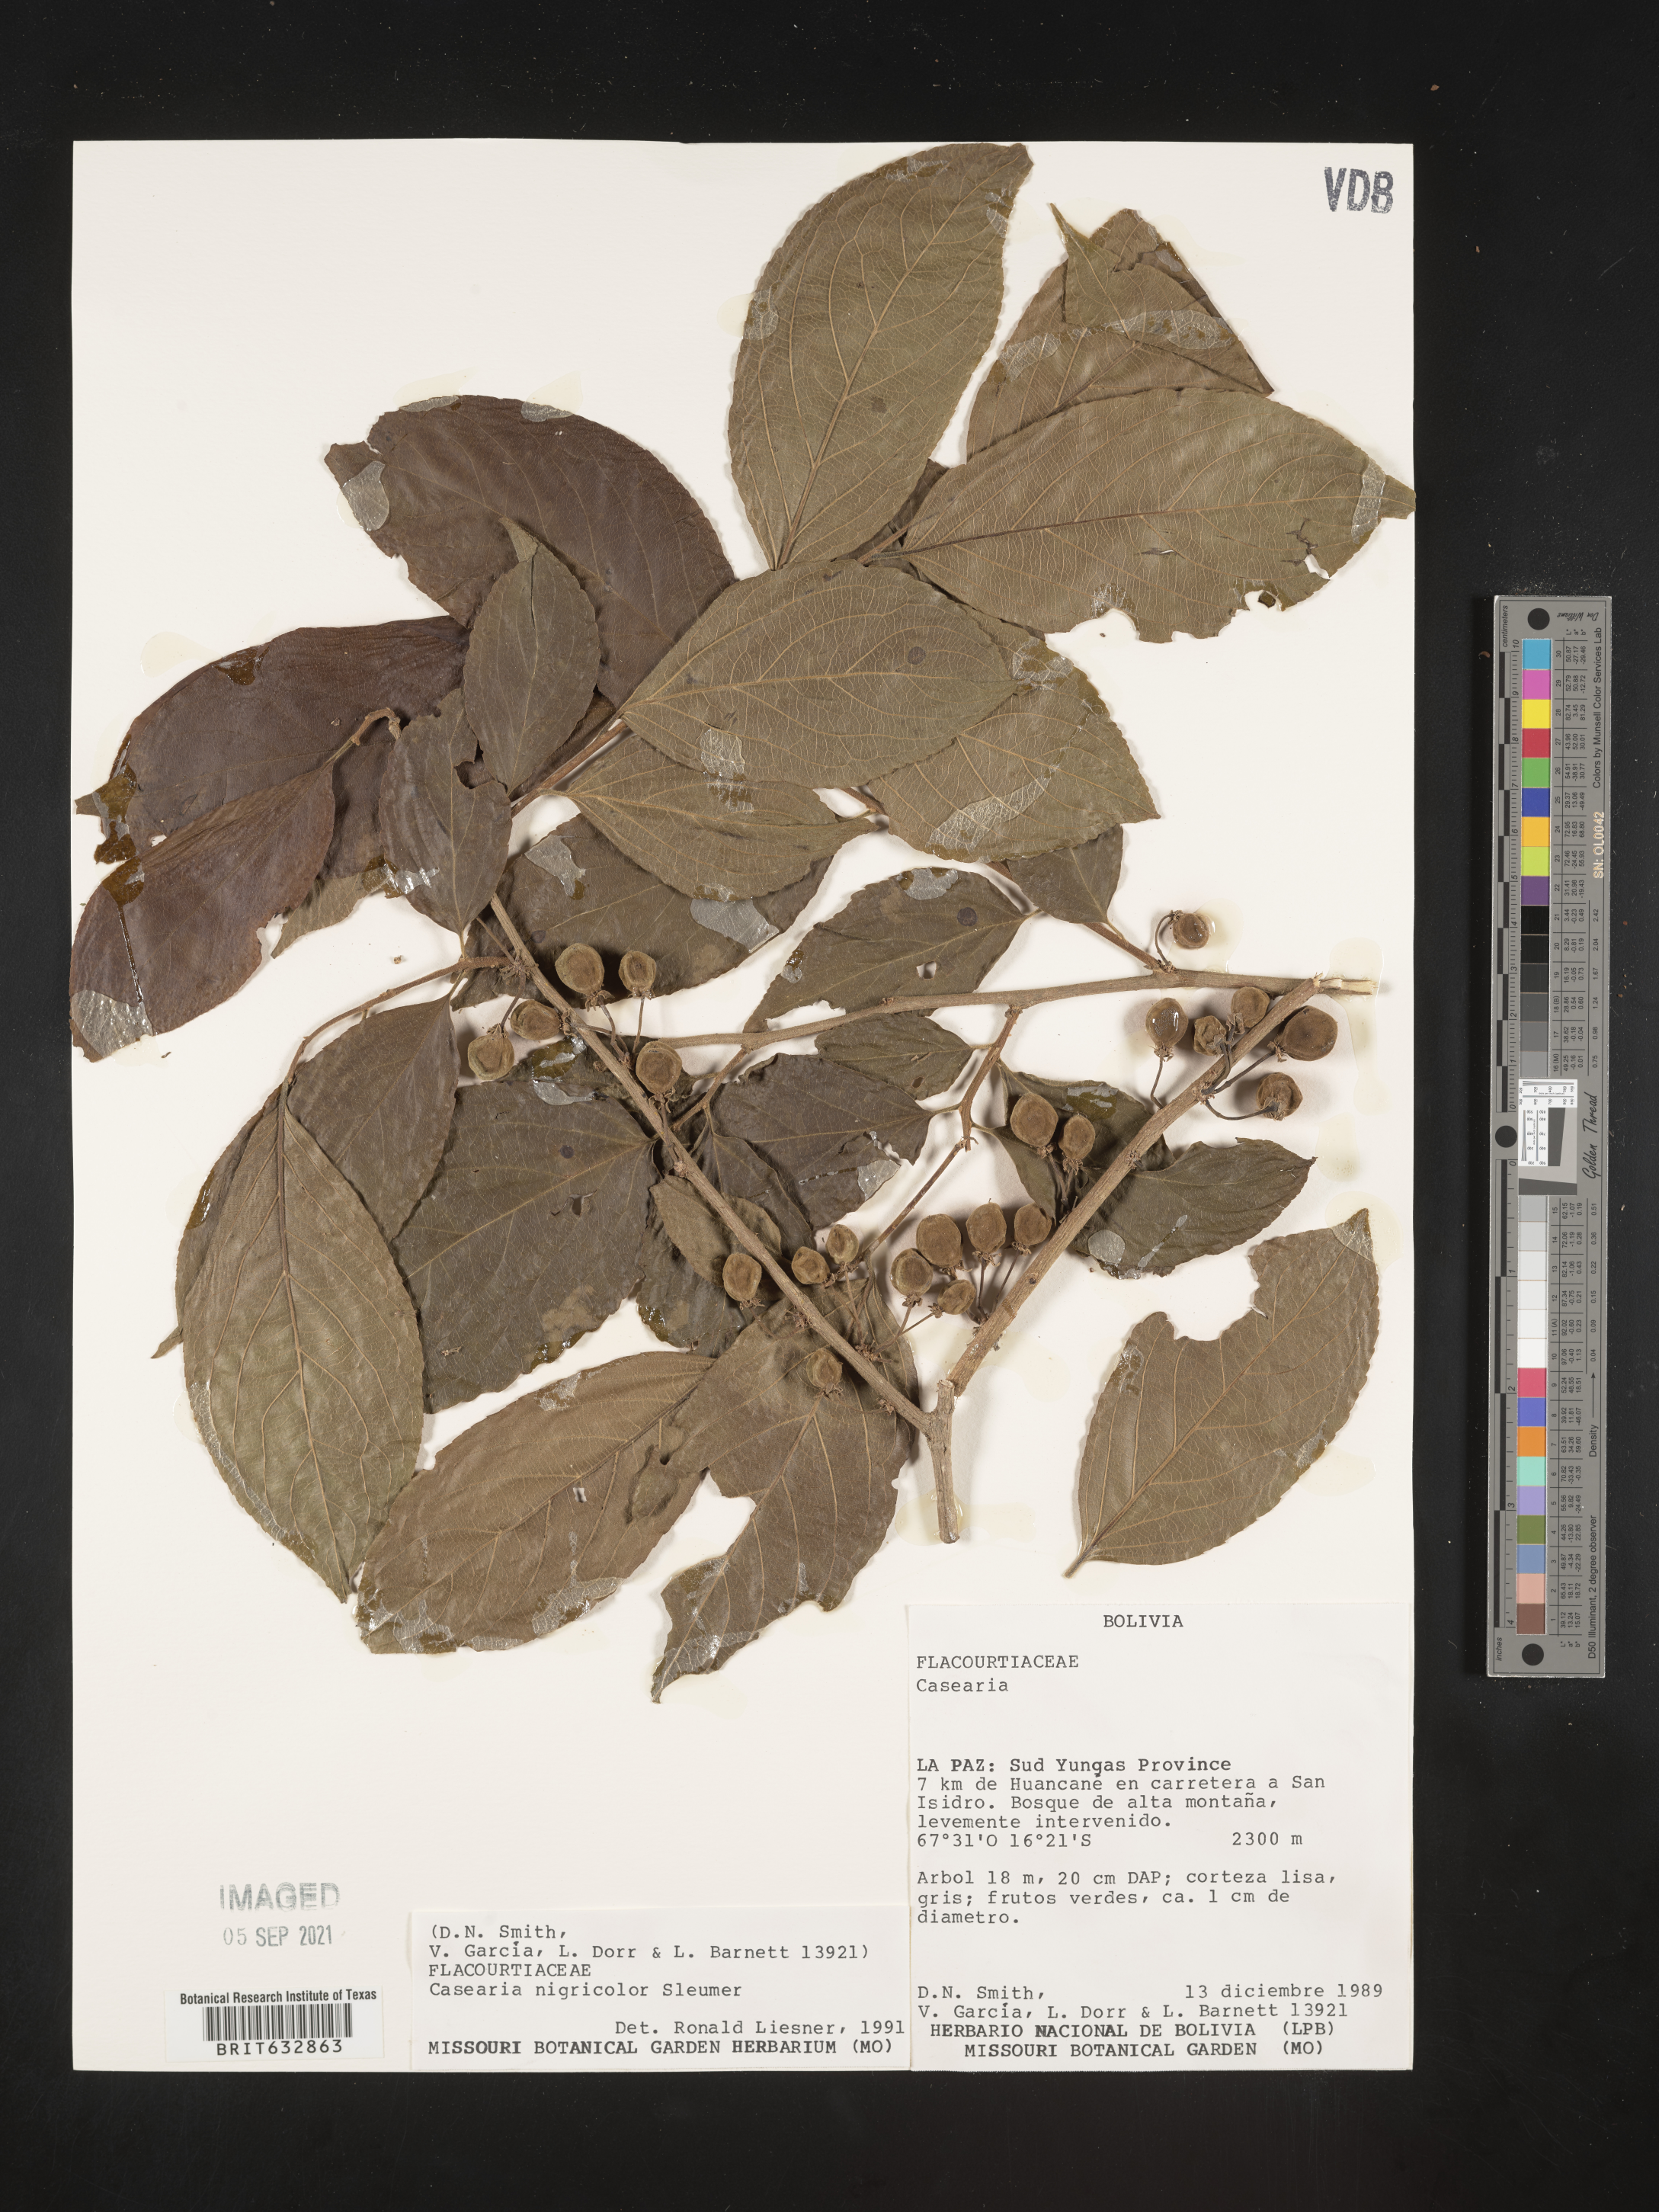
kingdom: Plantae
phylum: Tracheophyta
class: Magnoliopsida
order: Malpighiales
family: Salicaceae
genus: Casearia
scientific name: Casearia
